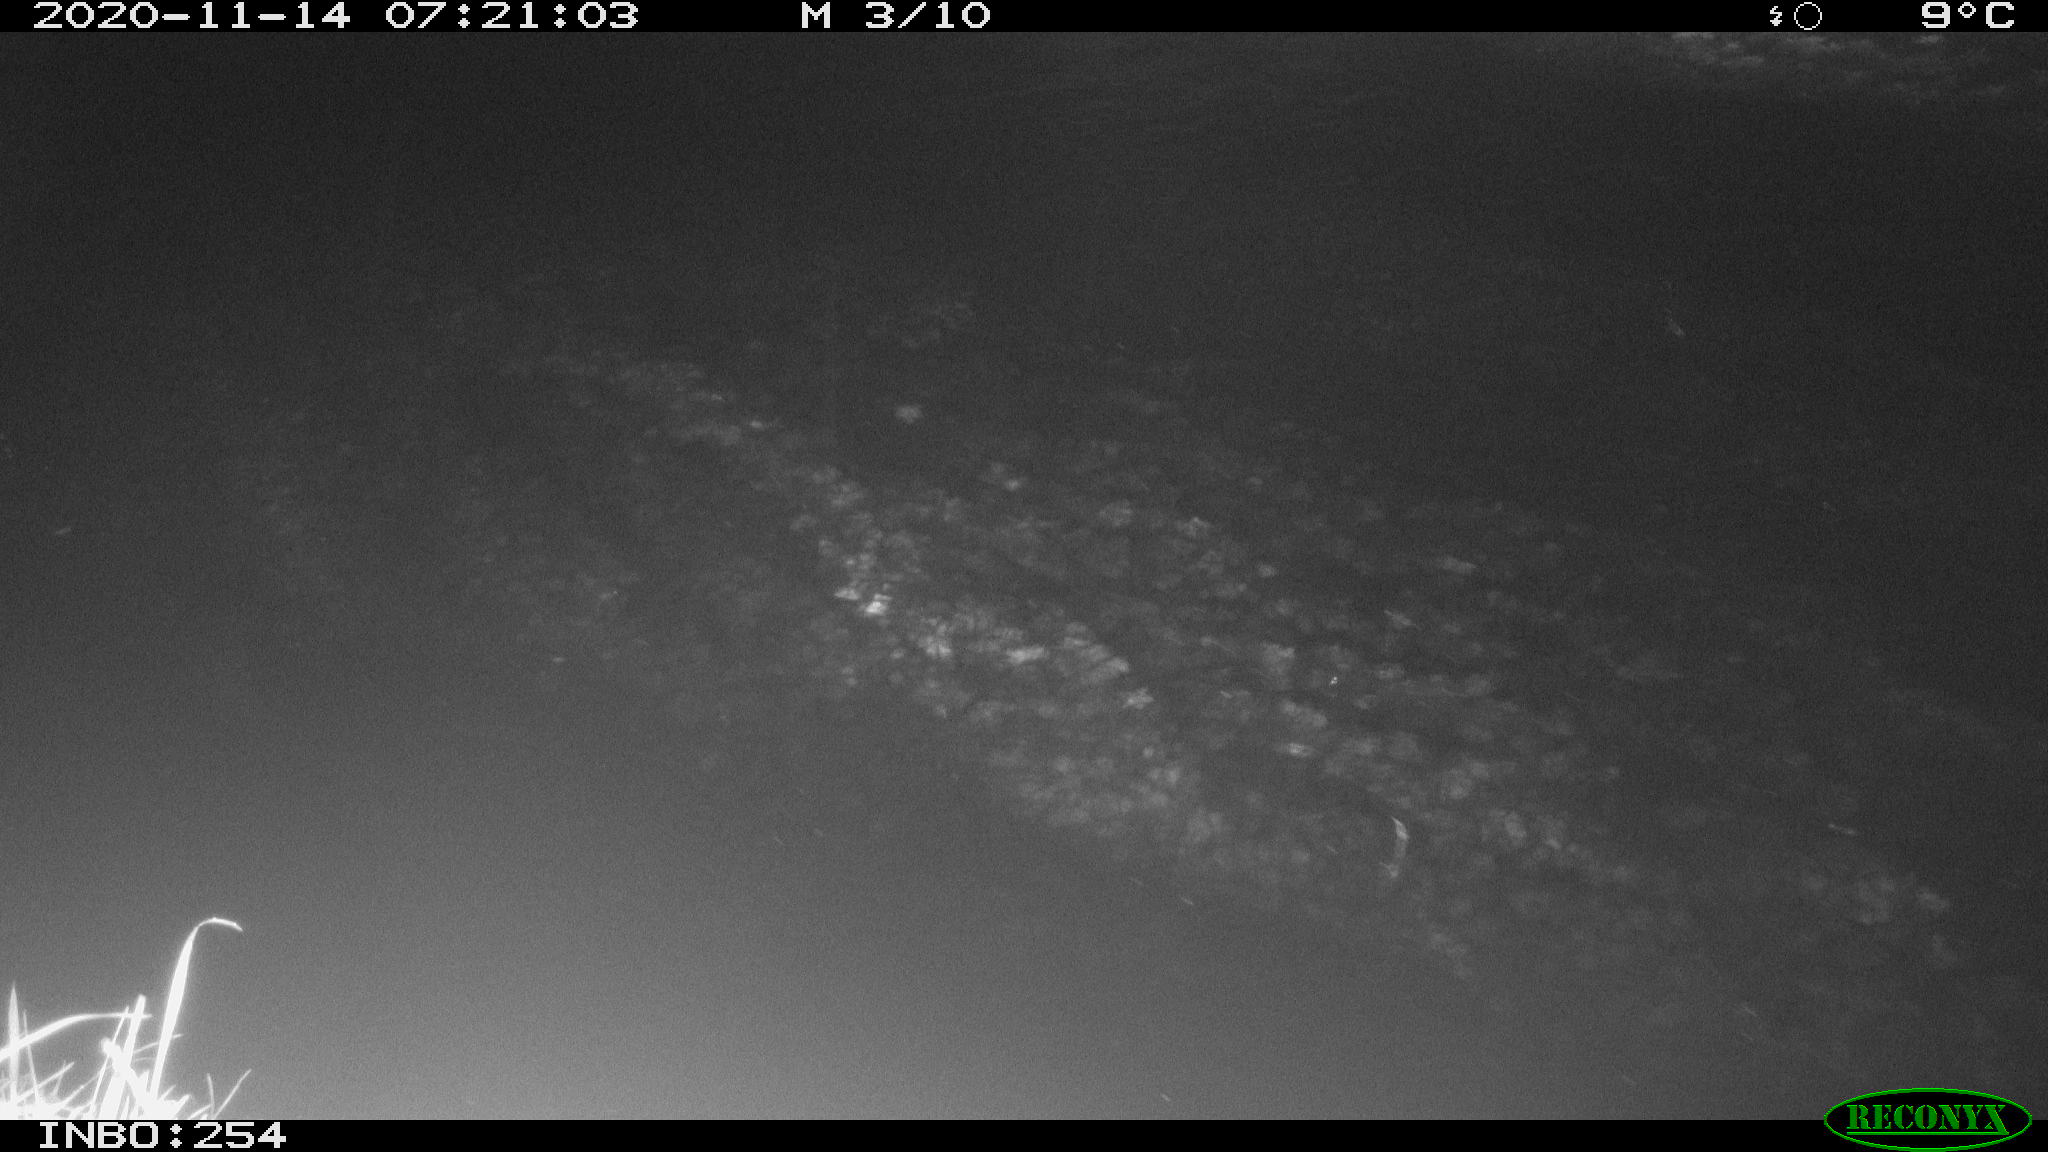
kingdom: Animalia
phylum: Chordata
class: Aves
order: Anseriformes
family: Anatidae
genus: Anas
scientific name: Anas platyrhynchos
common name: Mallard
